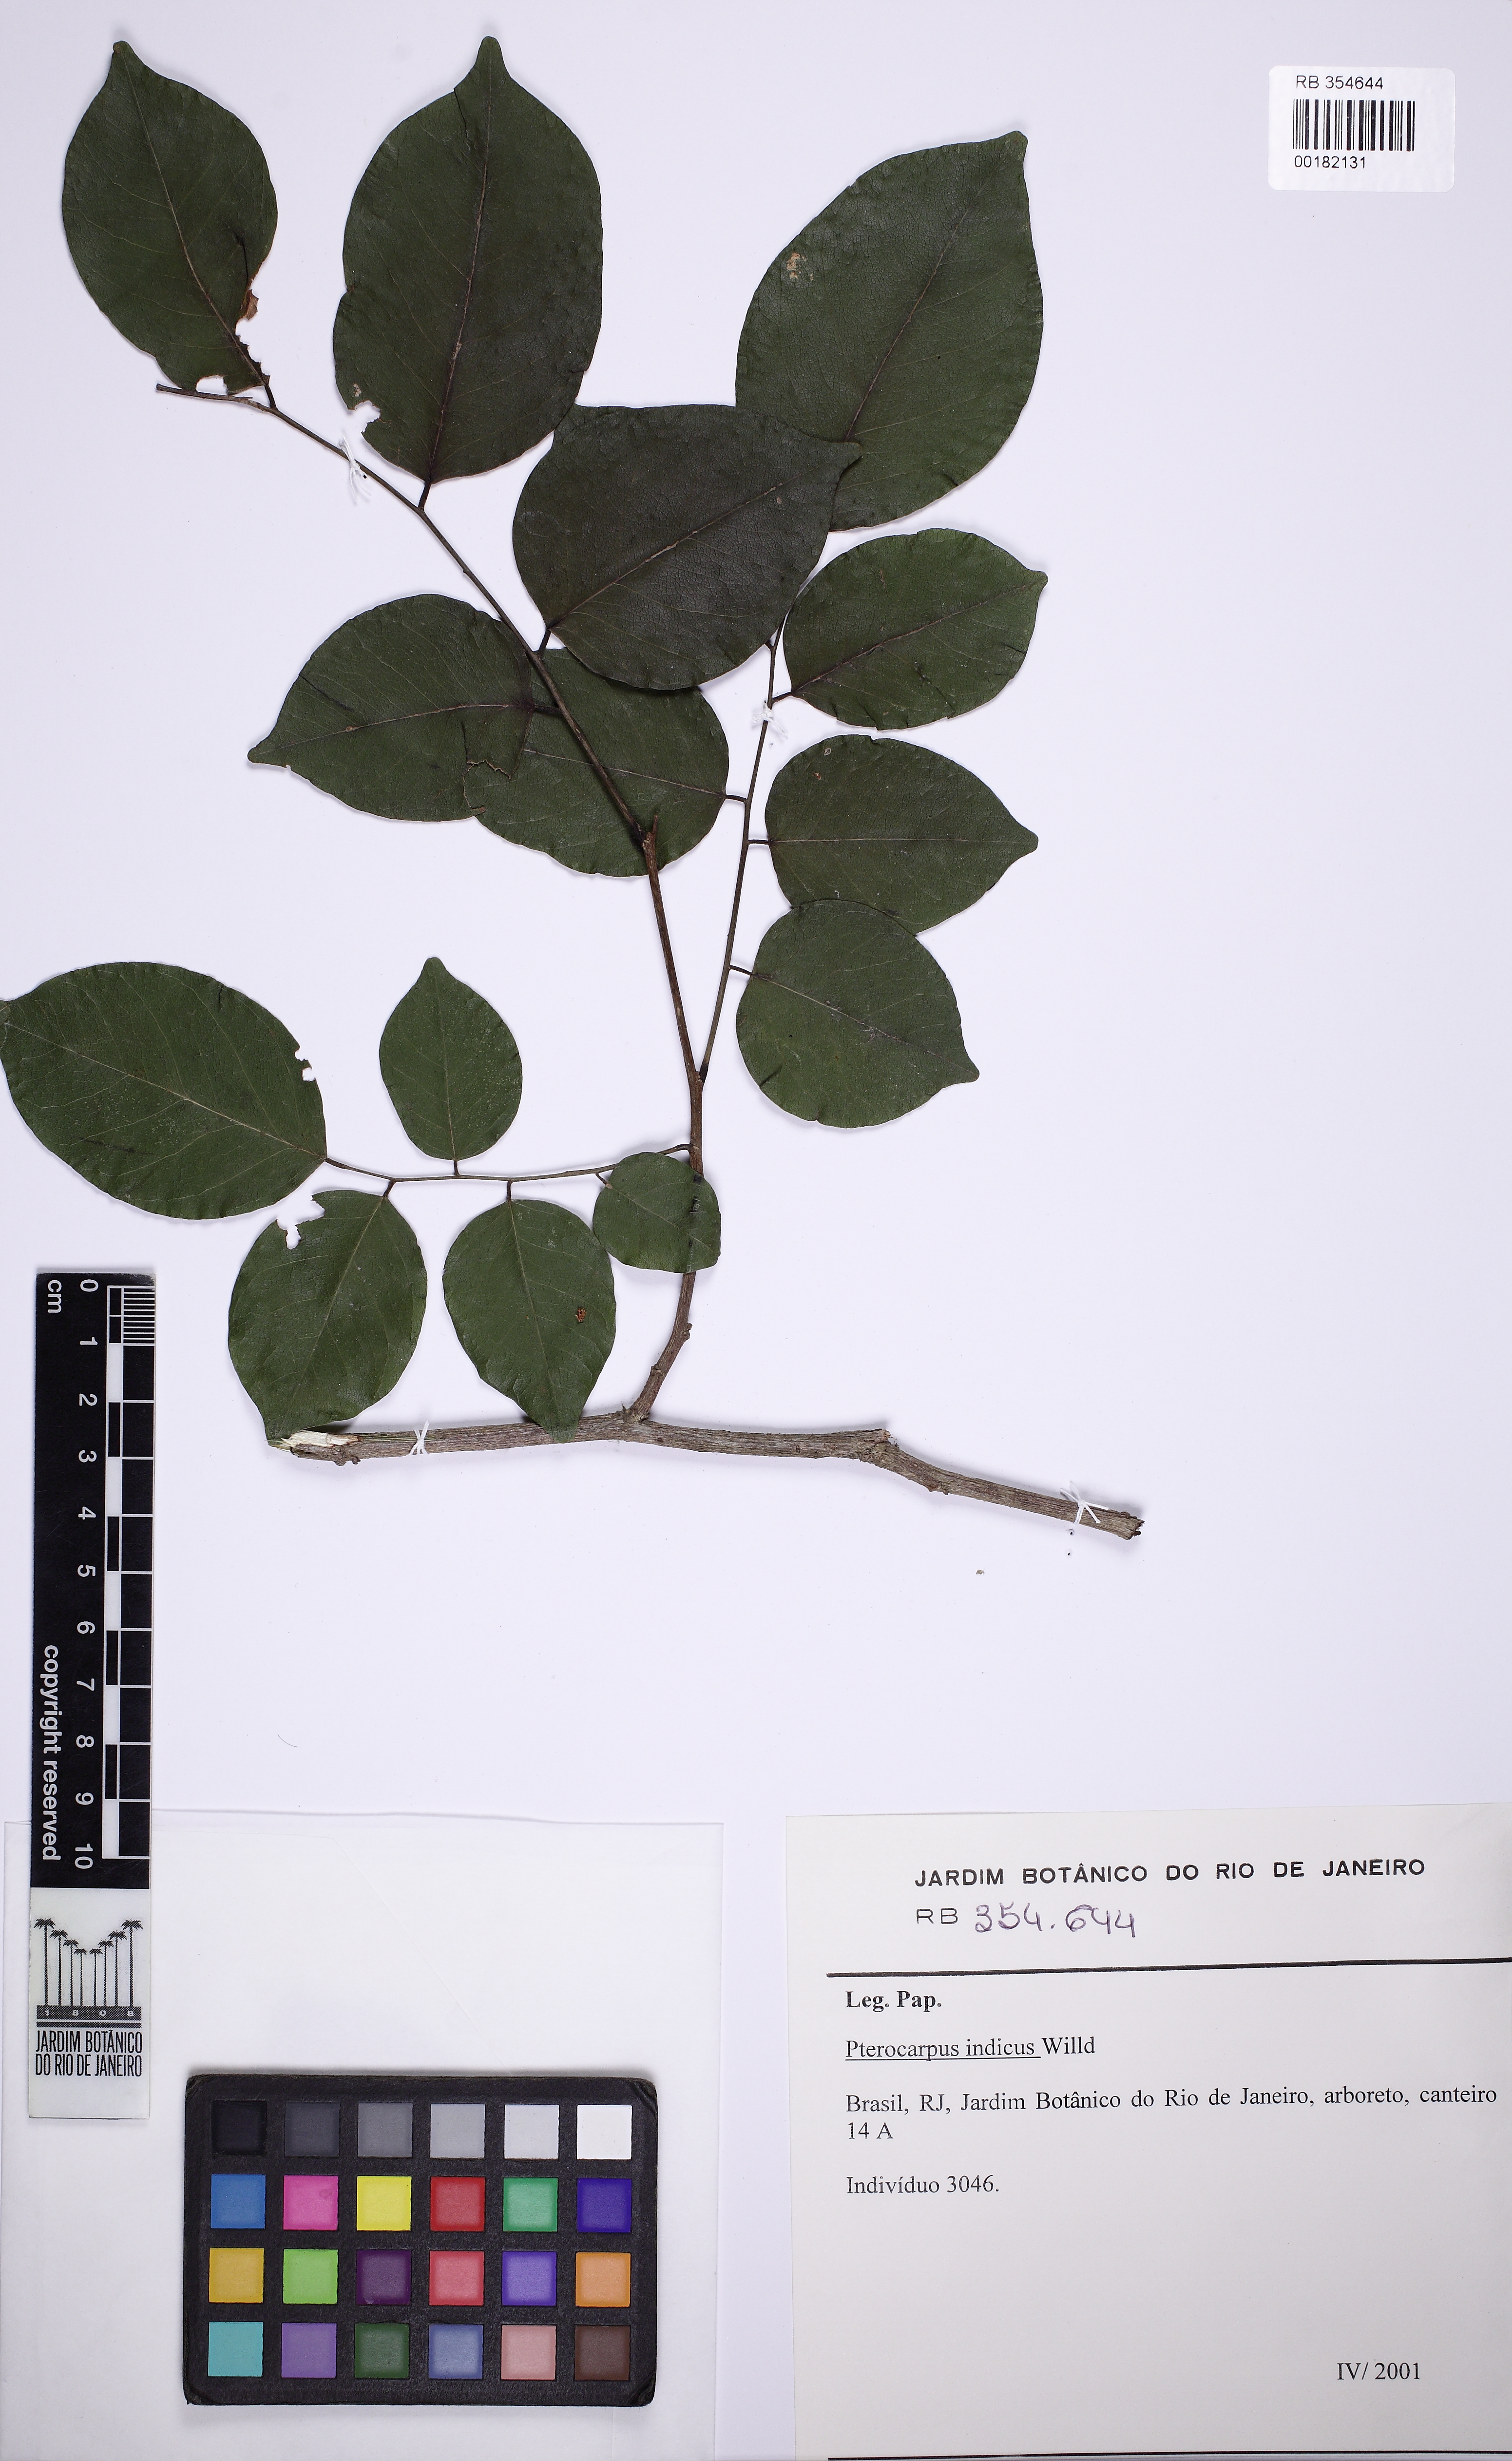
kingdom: Plantae
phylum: Tracheophyta
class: Magnoliopsida
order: Fabales
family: Fabaceae
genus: Pterocarpus
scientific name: Pterocarpus indicus
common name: Burmese rosewood
